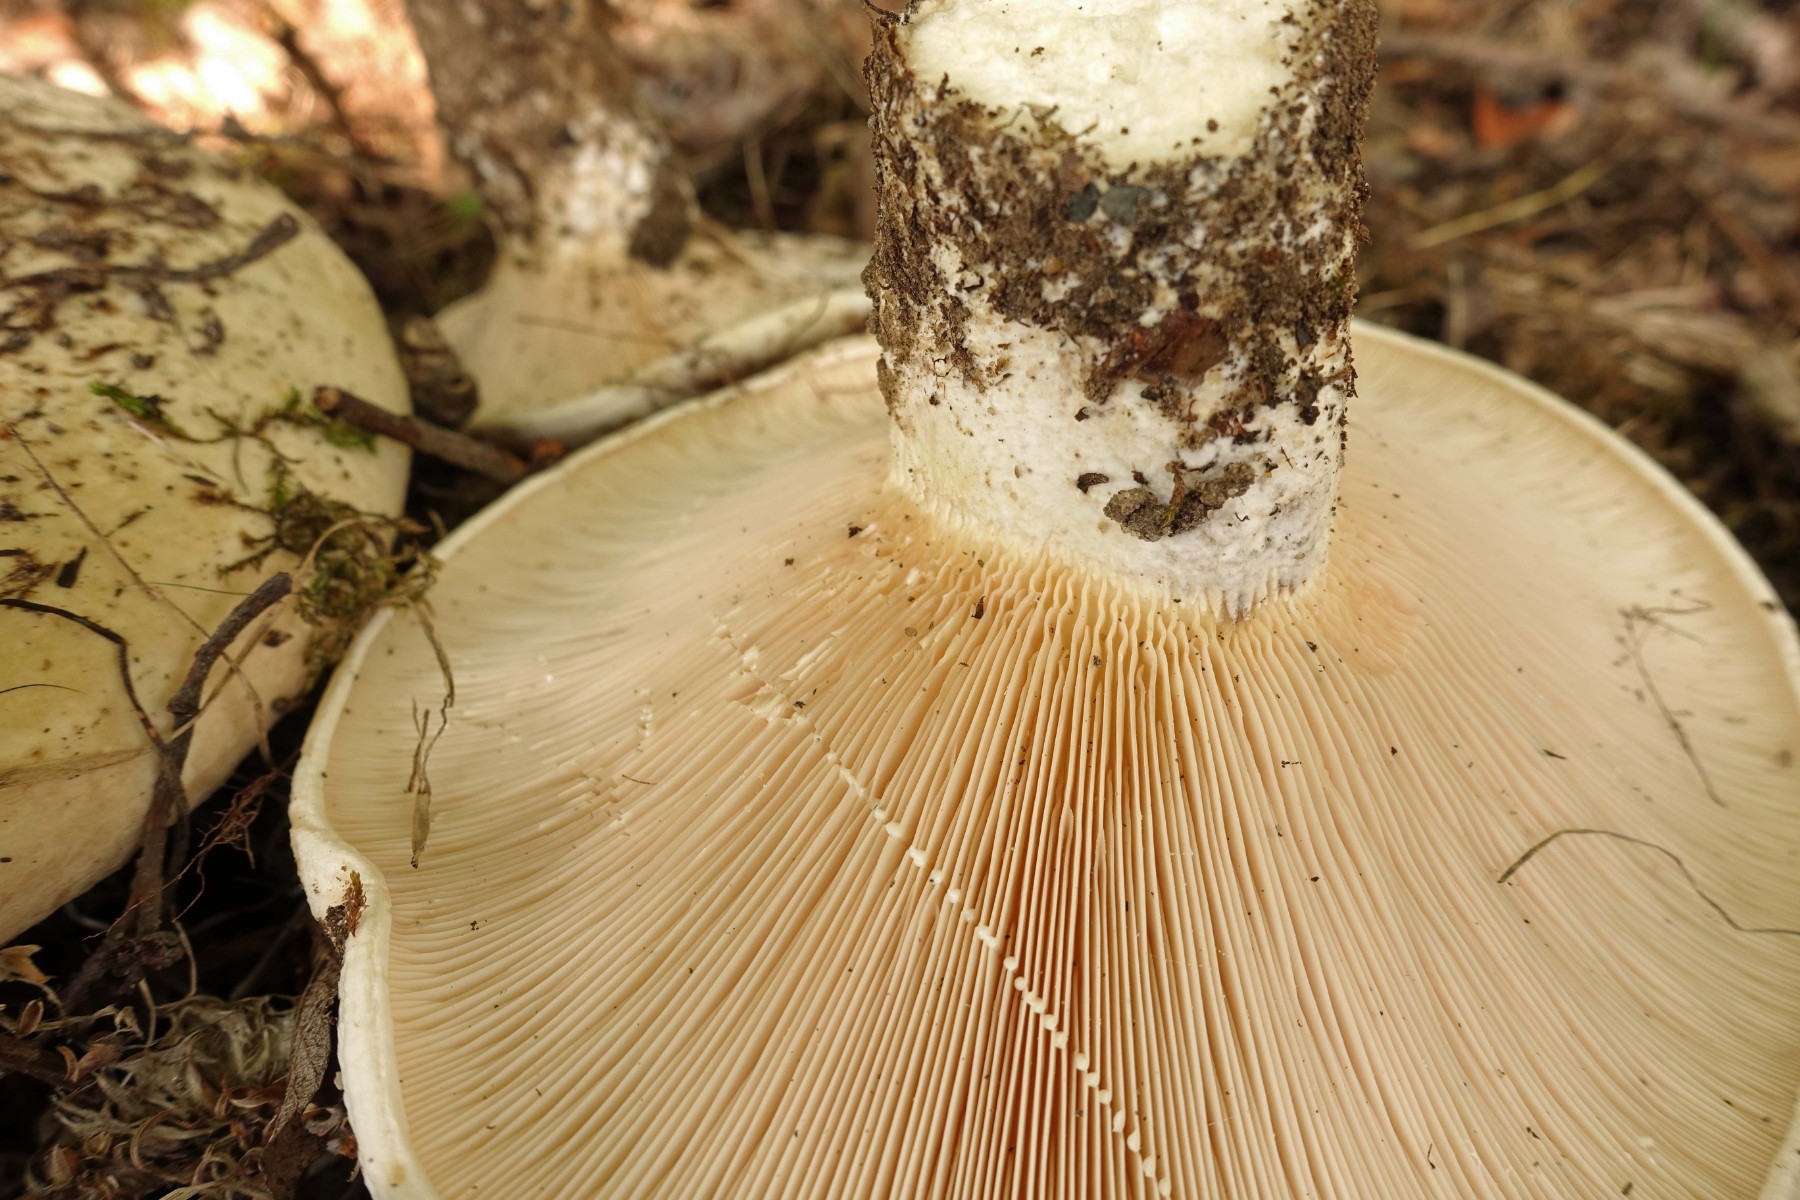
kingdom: Fungi
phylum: Basidiomycota
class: Agaricomycetes
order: Russulales
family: Russulaceae
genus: Lactifluus
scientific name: Lactifluus vellereus
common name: hvidfiltet mælkehat
